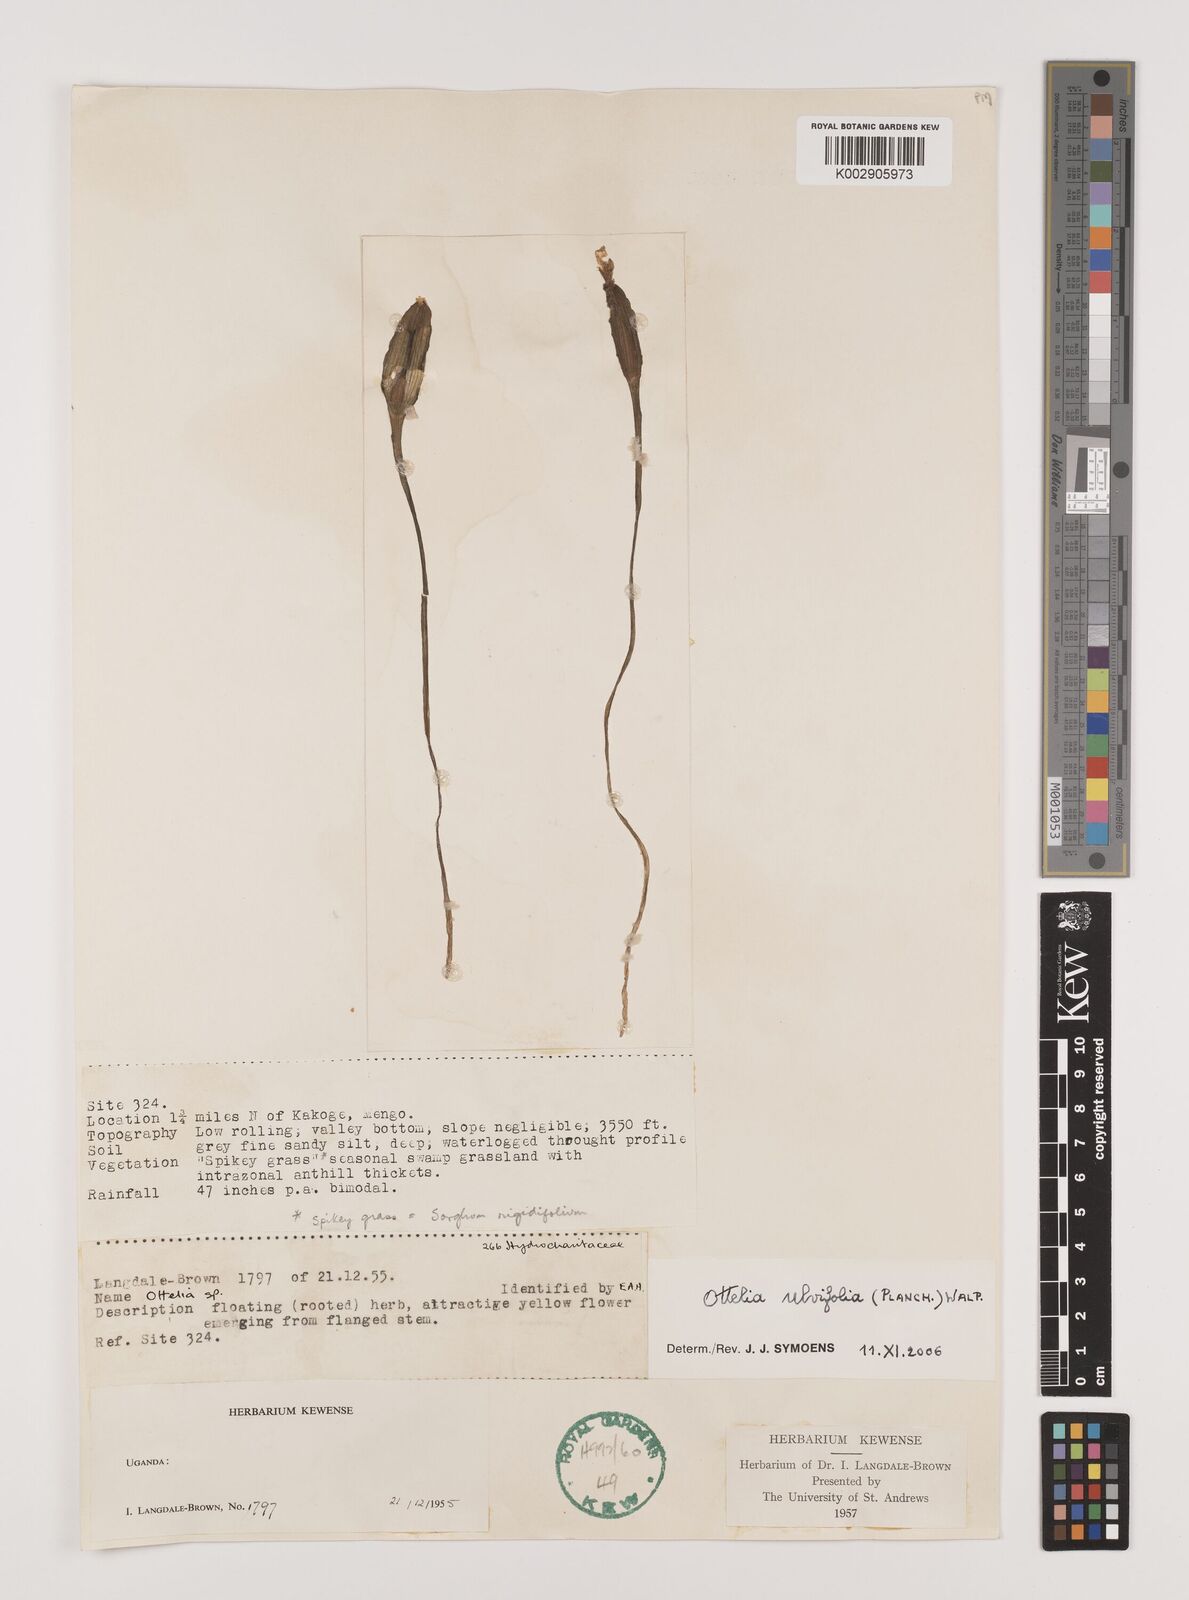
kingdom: Plantae
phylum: Tracheophyta
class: Liliopsida
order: Alismatales
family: Hydrocharitaceae
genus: Ottelia
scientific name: Ottelia ulvifolia
